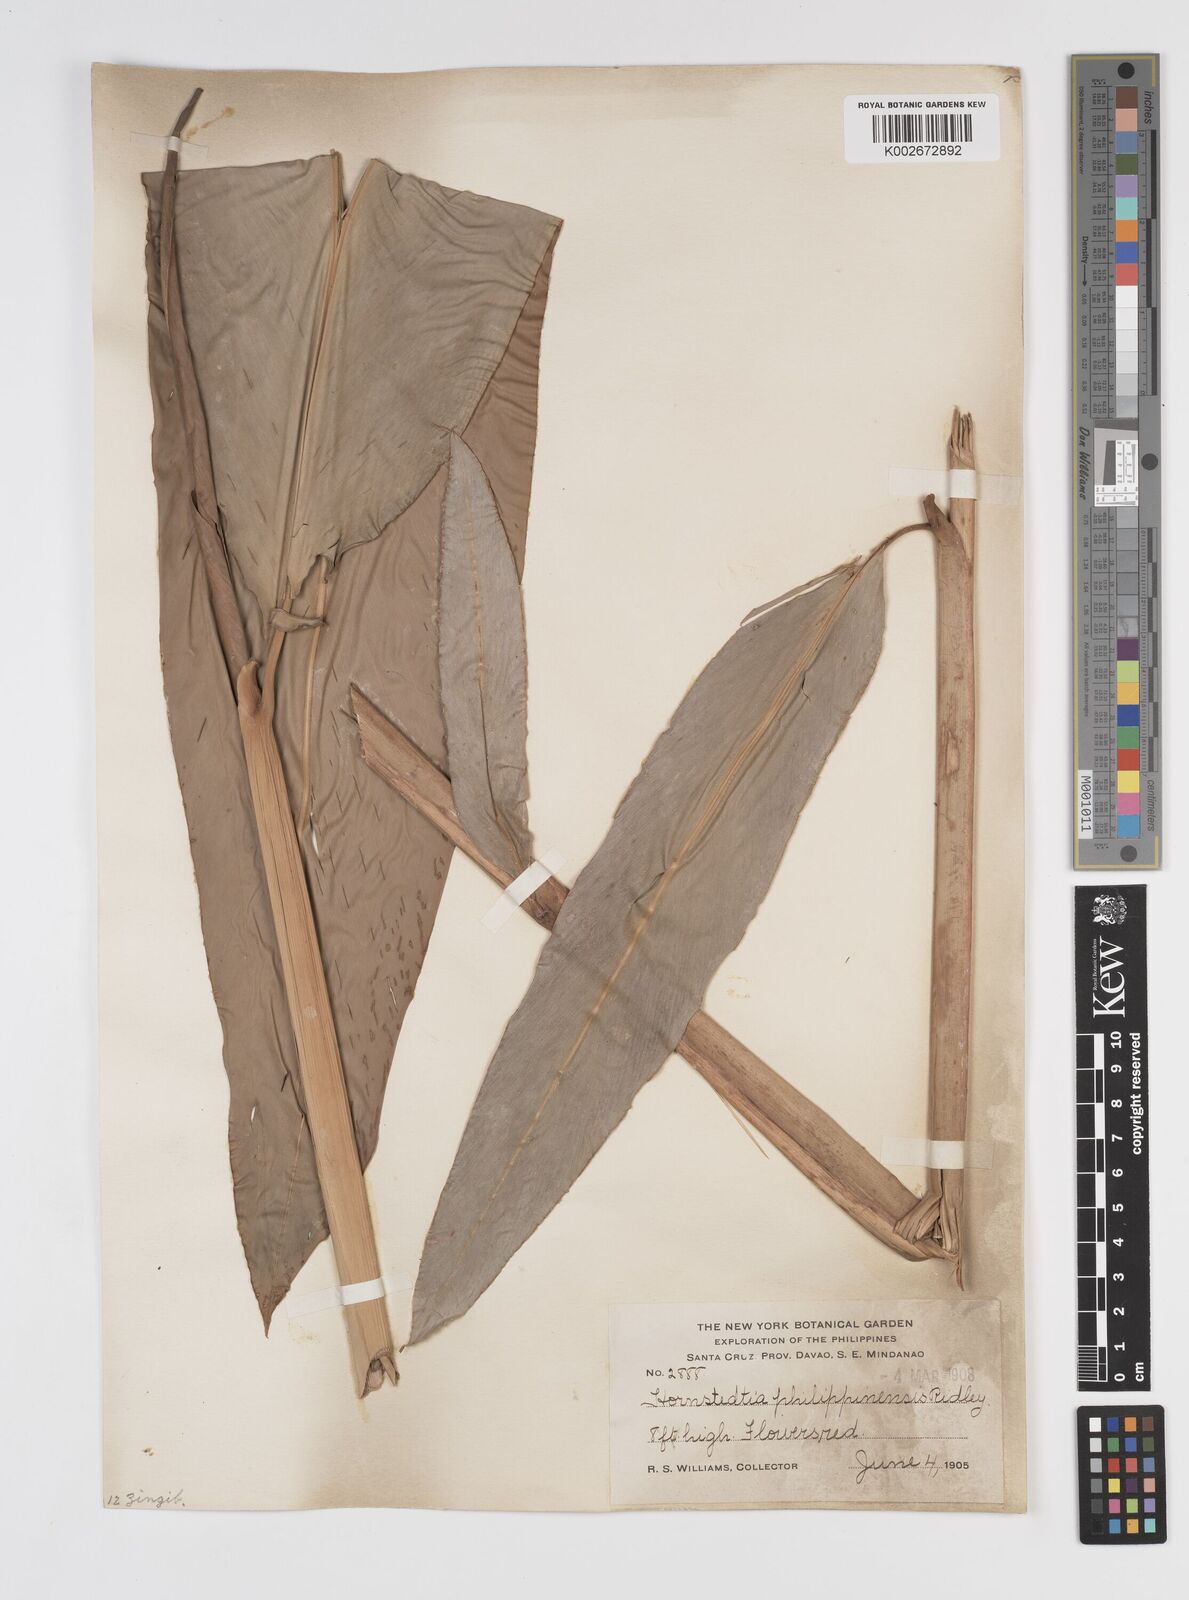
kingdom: Plantae
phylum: Tracheophyta
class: Liliopsida
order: Zingiberales
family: Zingiberaceae
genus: Etlingera
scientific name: Etlingera philippinensis
